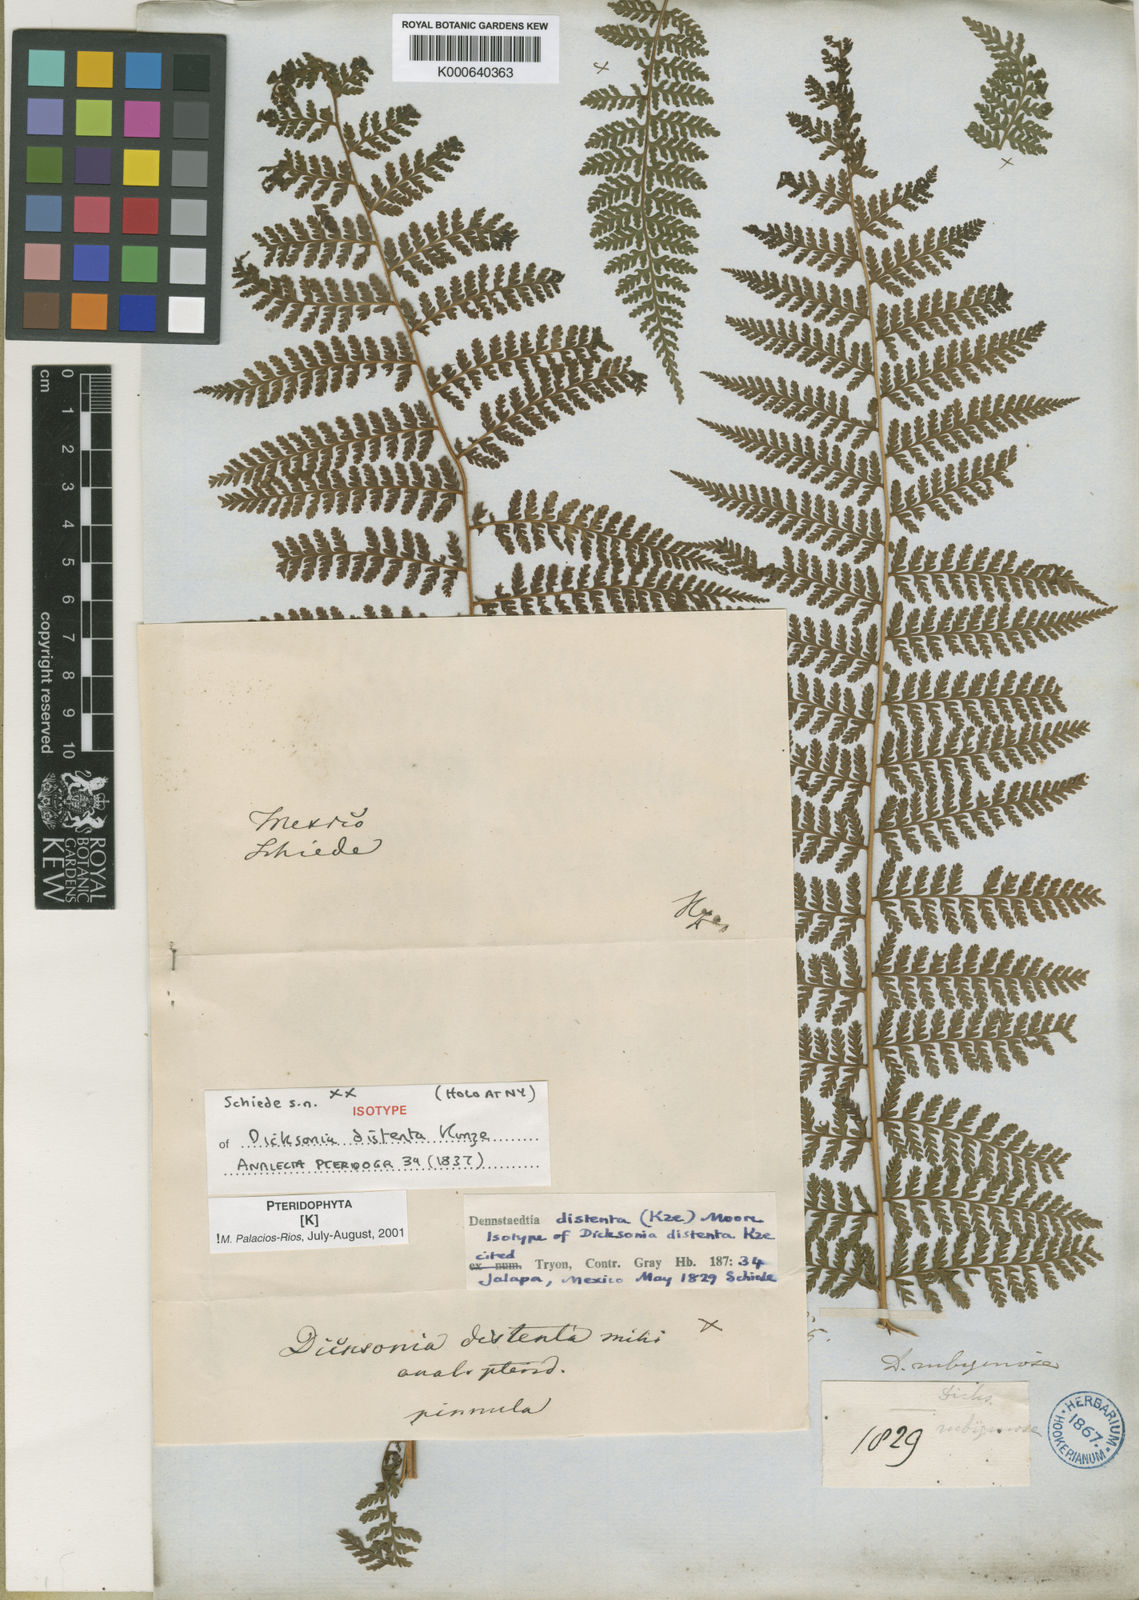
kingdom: Plantae
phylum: Tracheophyta
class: Polypodiopsida
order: Polypodiales
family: Dennstaedtiaceae
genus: Dennstaedtia
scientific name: Dennstaedtia distenta
